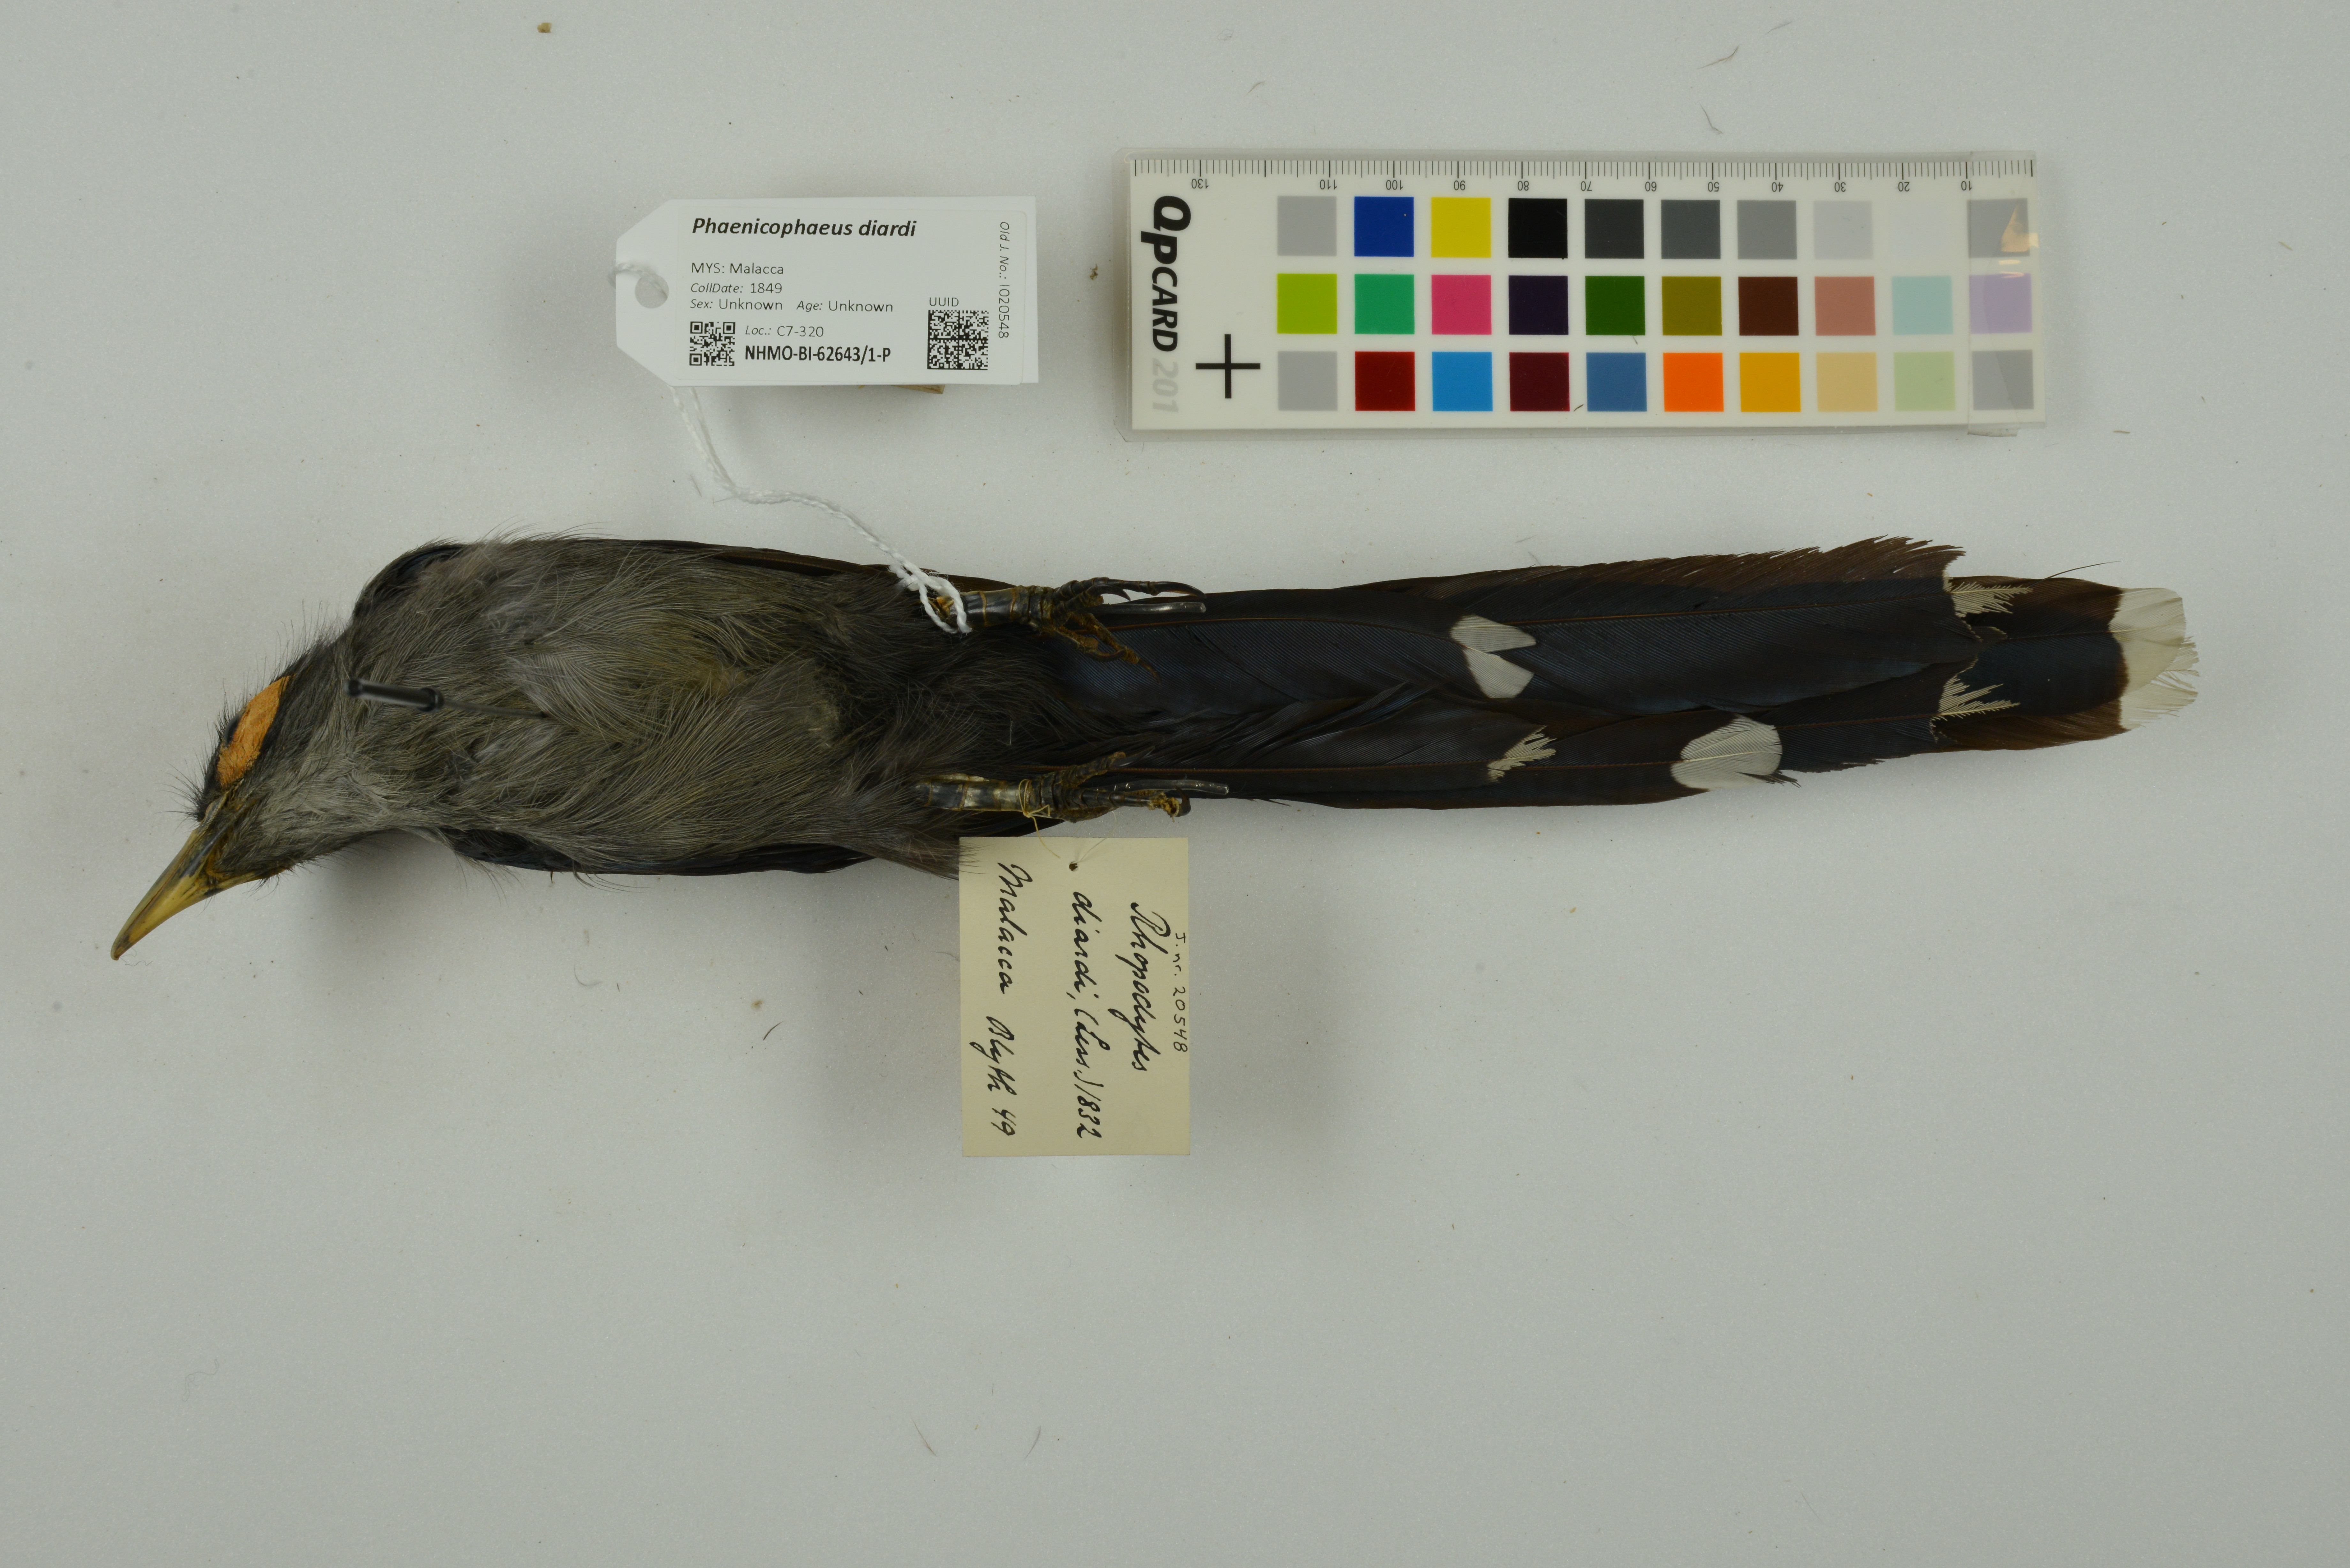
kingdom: Animalia
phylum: Chordata
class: Aves
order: Cuculiformes
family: Cuculidae
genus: Rhopodytes
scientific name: Rhopodytes diardi
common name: Lesser green-billed malcoha
